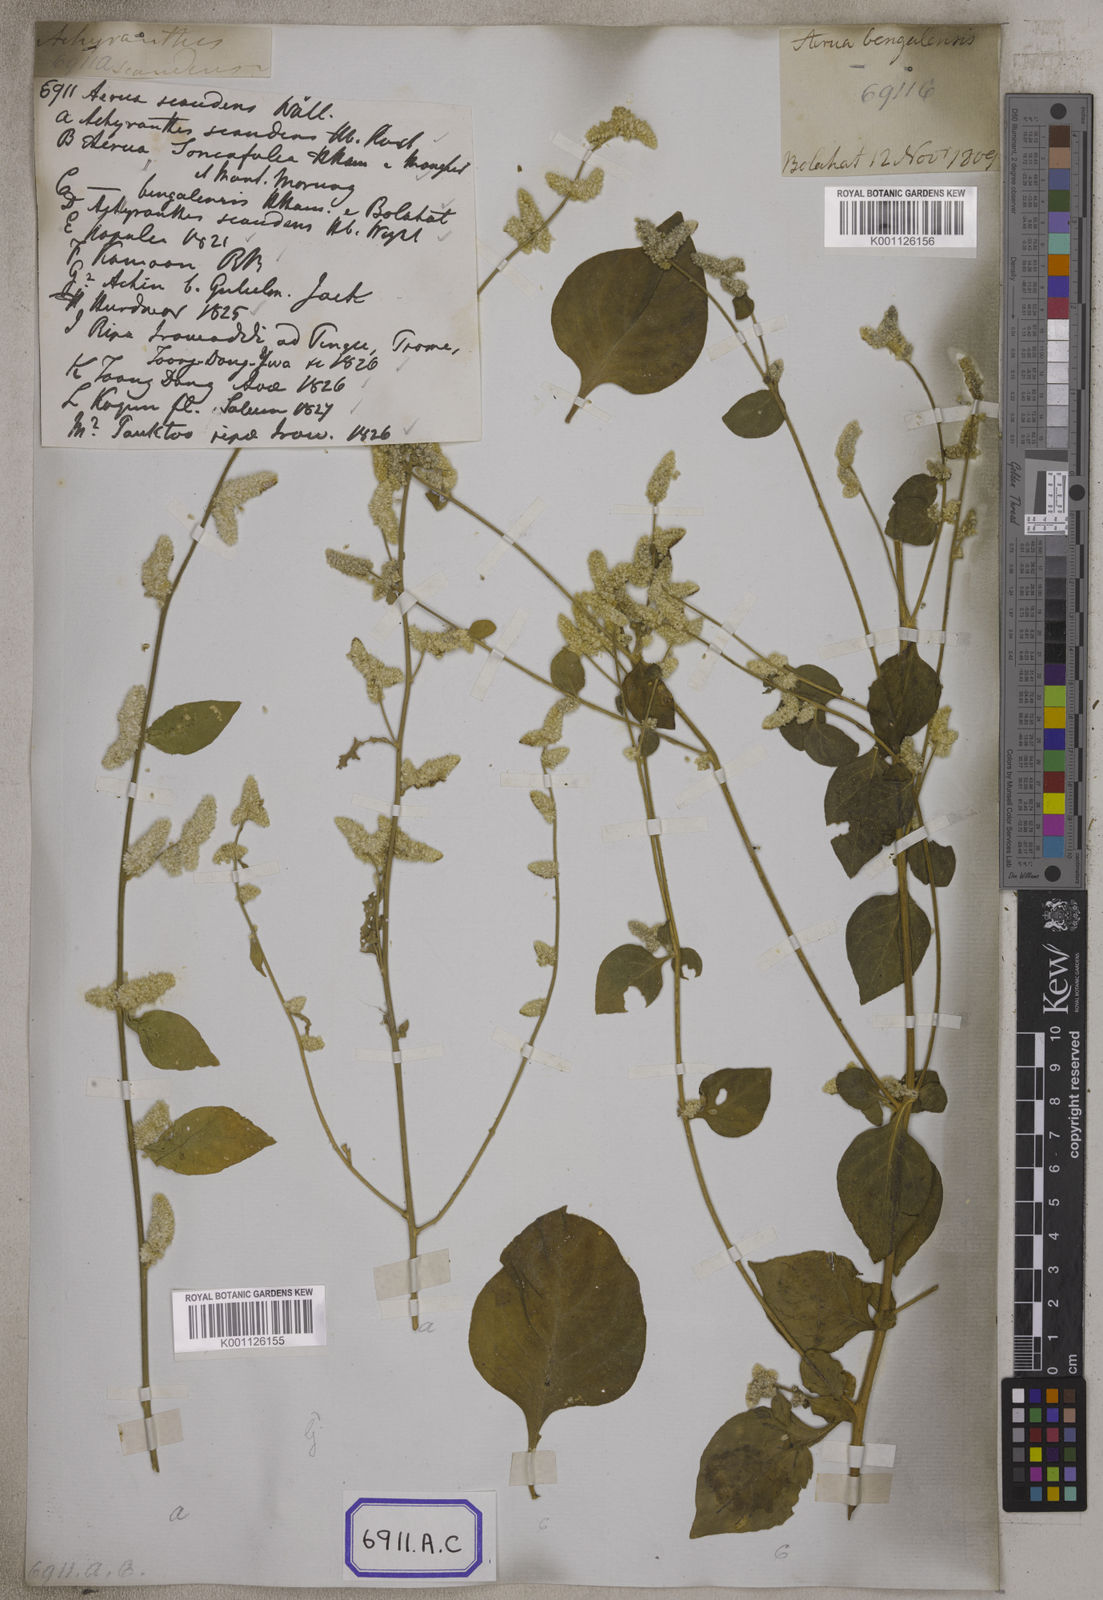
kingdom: Plantae
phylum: Tracheophyta
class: Magnoliopsida
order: Caryophyllales
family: Amaranthaceae
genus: Ouret
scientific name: Ouret sanguinolenta
